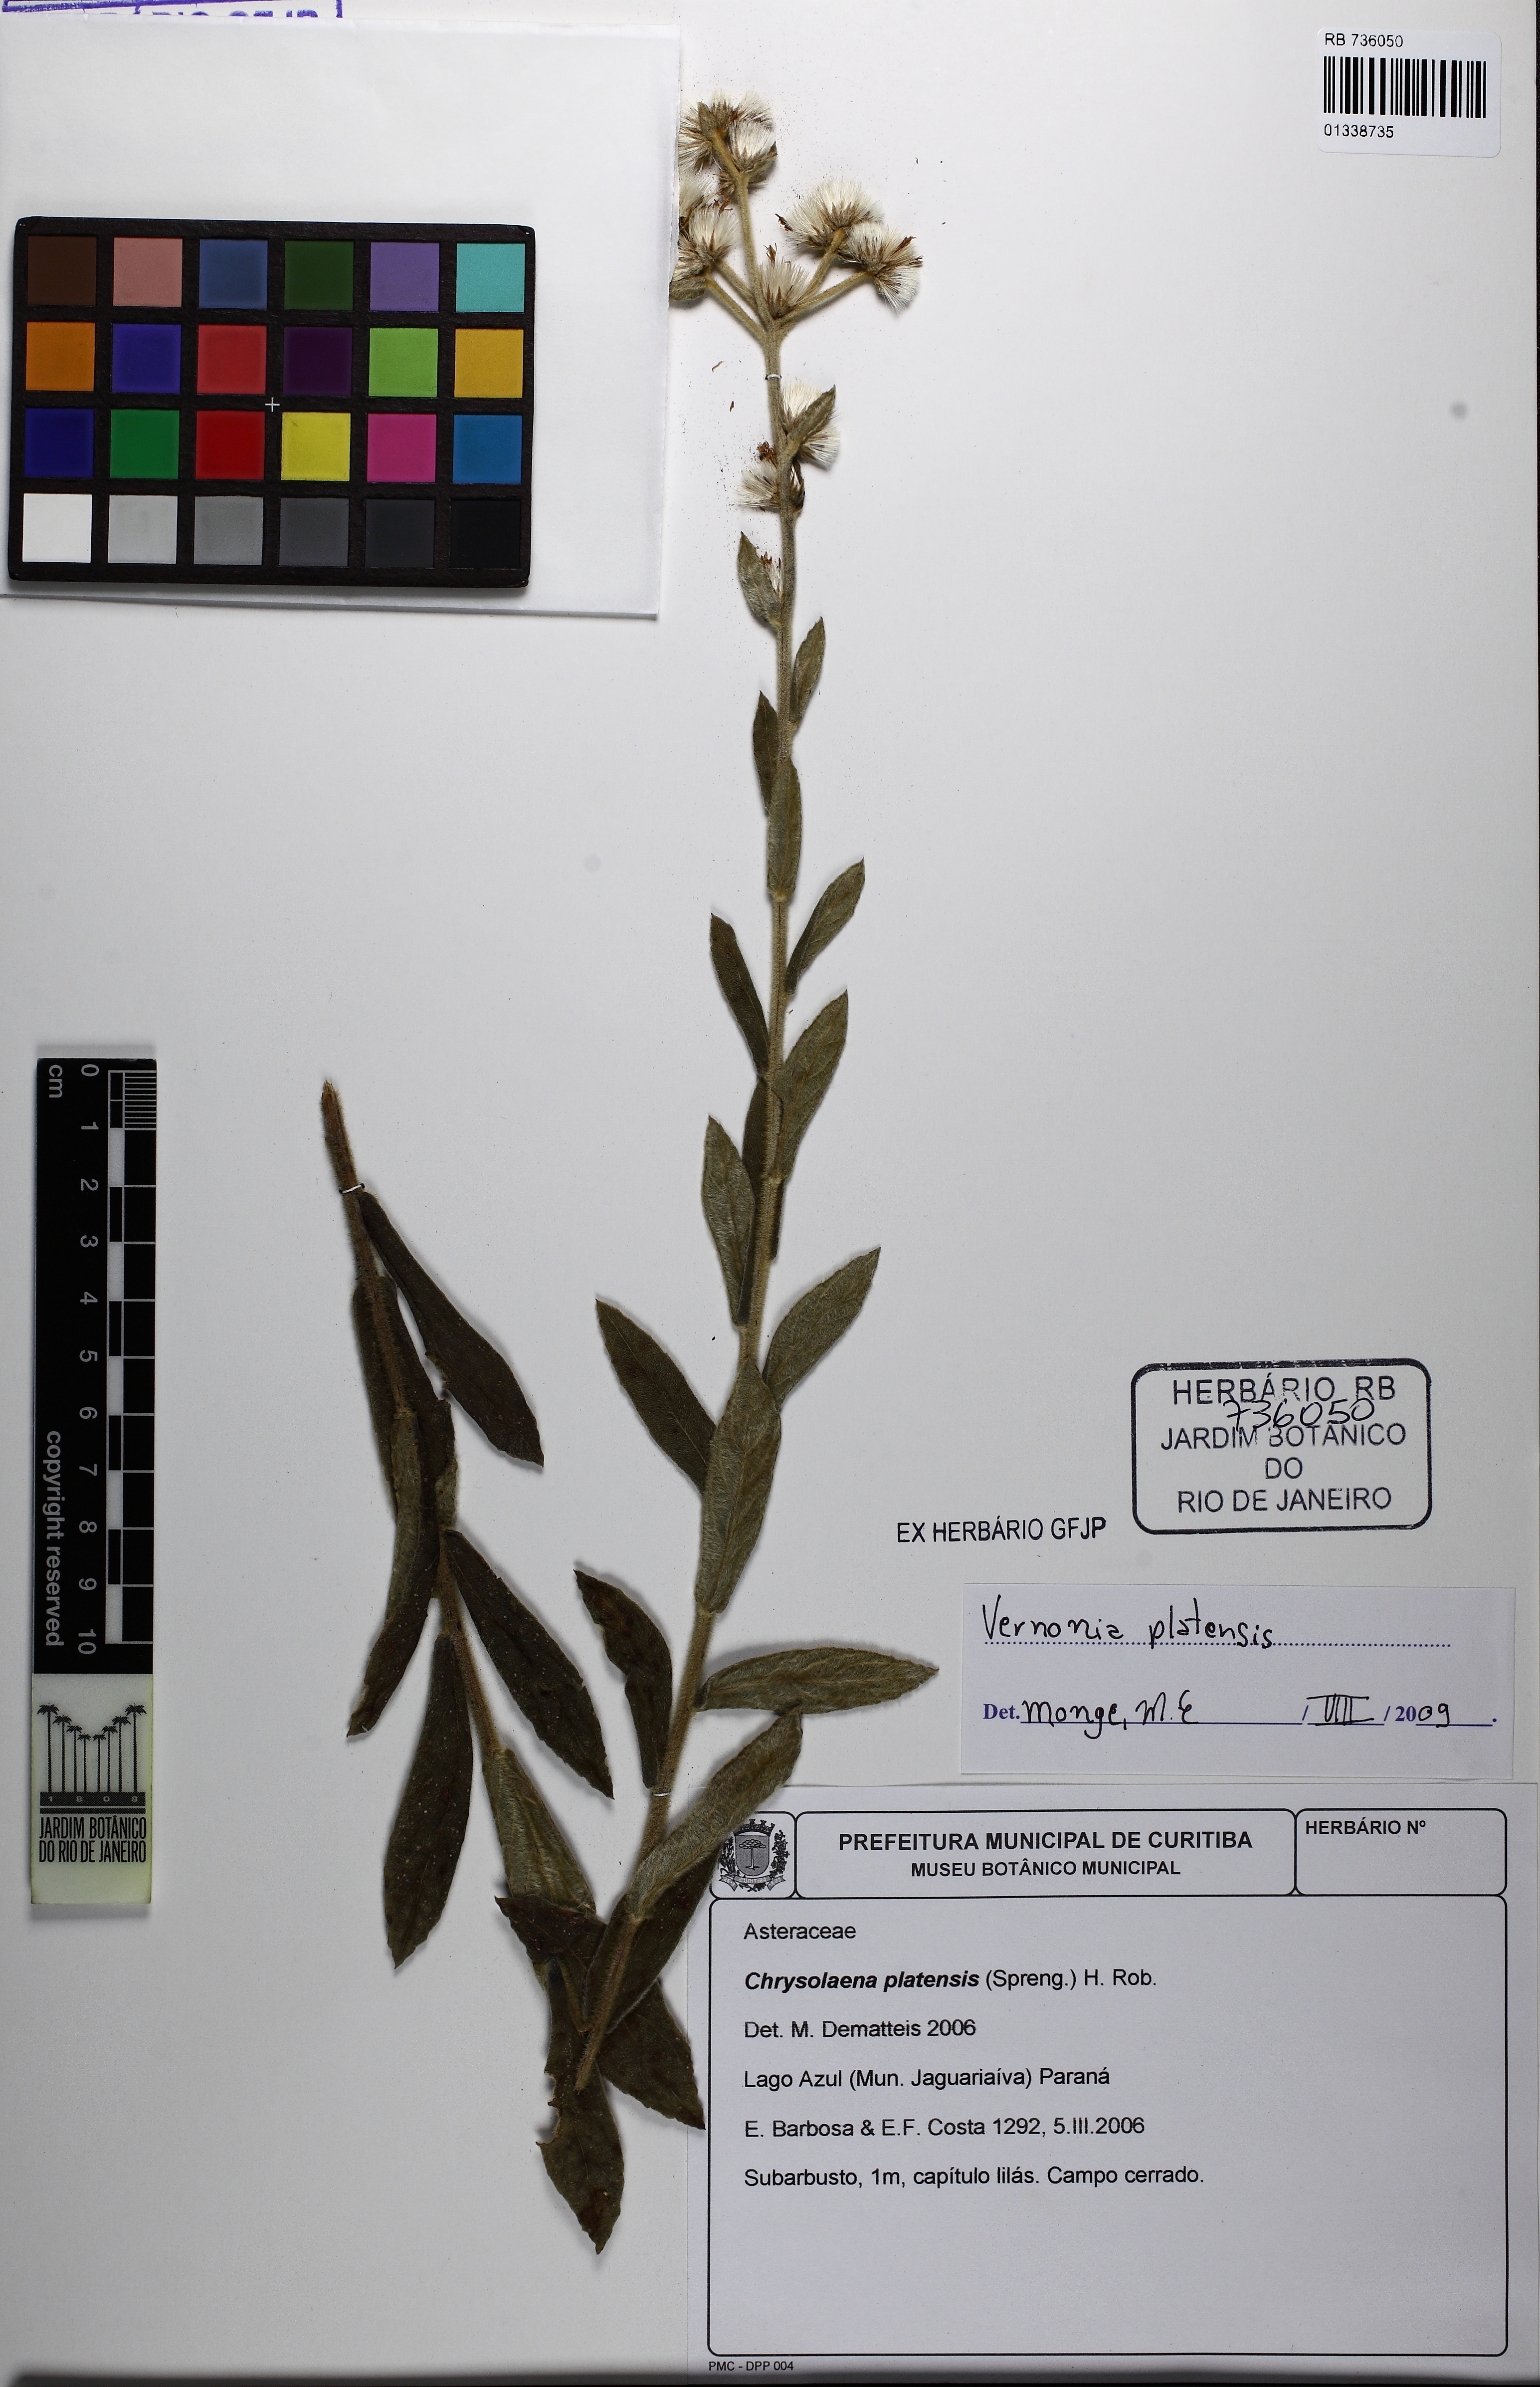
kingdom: Plantae
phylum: Tracheophyta
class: Magnoliopsida
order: Asterales
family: Asteraceae
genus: Chrysolaena
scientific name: Chrysolaena platensis
